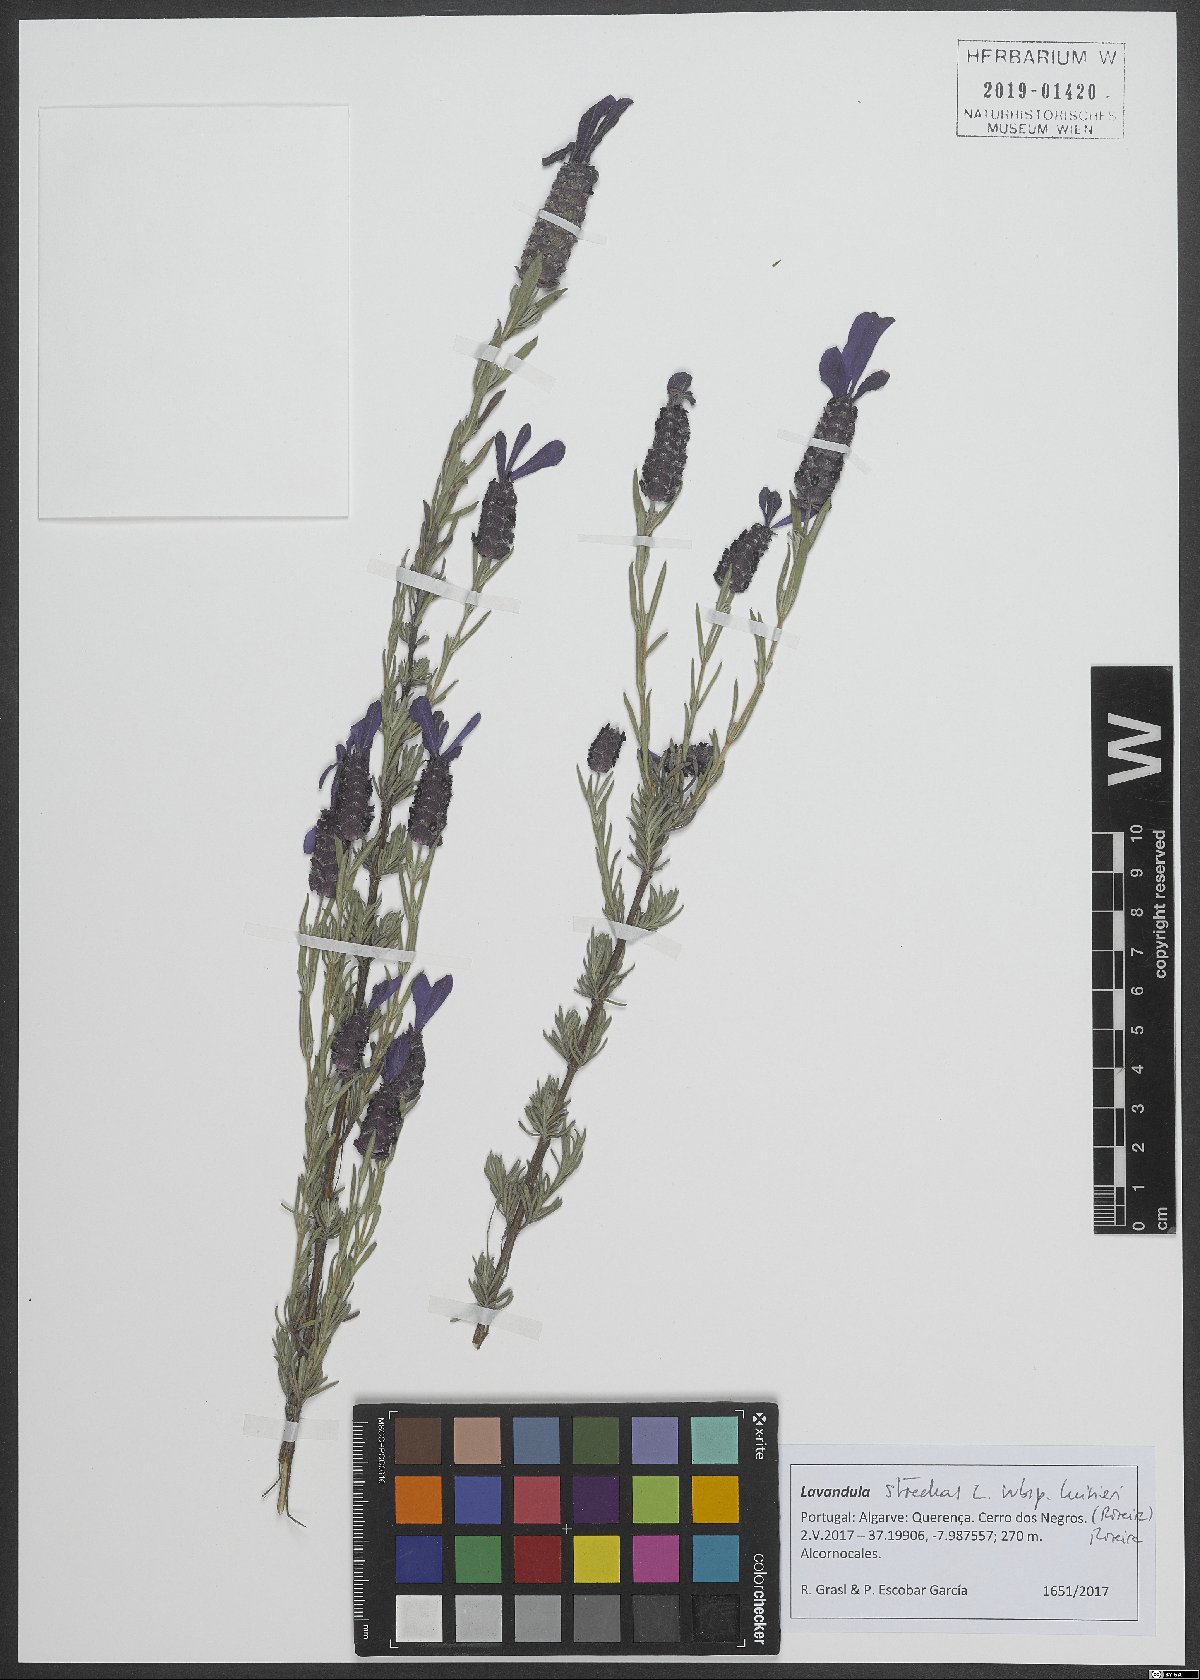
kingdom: Plantae
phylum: Tracheophyta
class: Magnoliopsida
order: Lamiales
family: Lamiaceae
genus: Lavandula
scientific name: Lavandula stoechas
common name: French lavender
